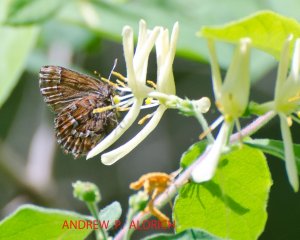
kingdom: Animalia
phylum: Arthropoda
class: Insecta
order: Lepidoptera
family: Lycaenidae
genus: Incisalia
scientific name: Incisalia niphon
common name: Eastern Pine Elfin
